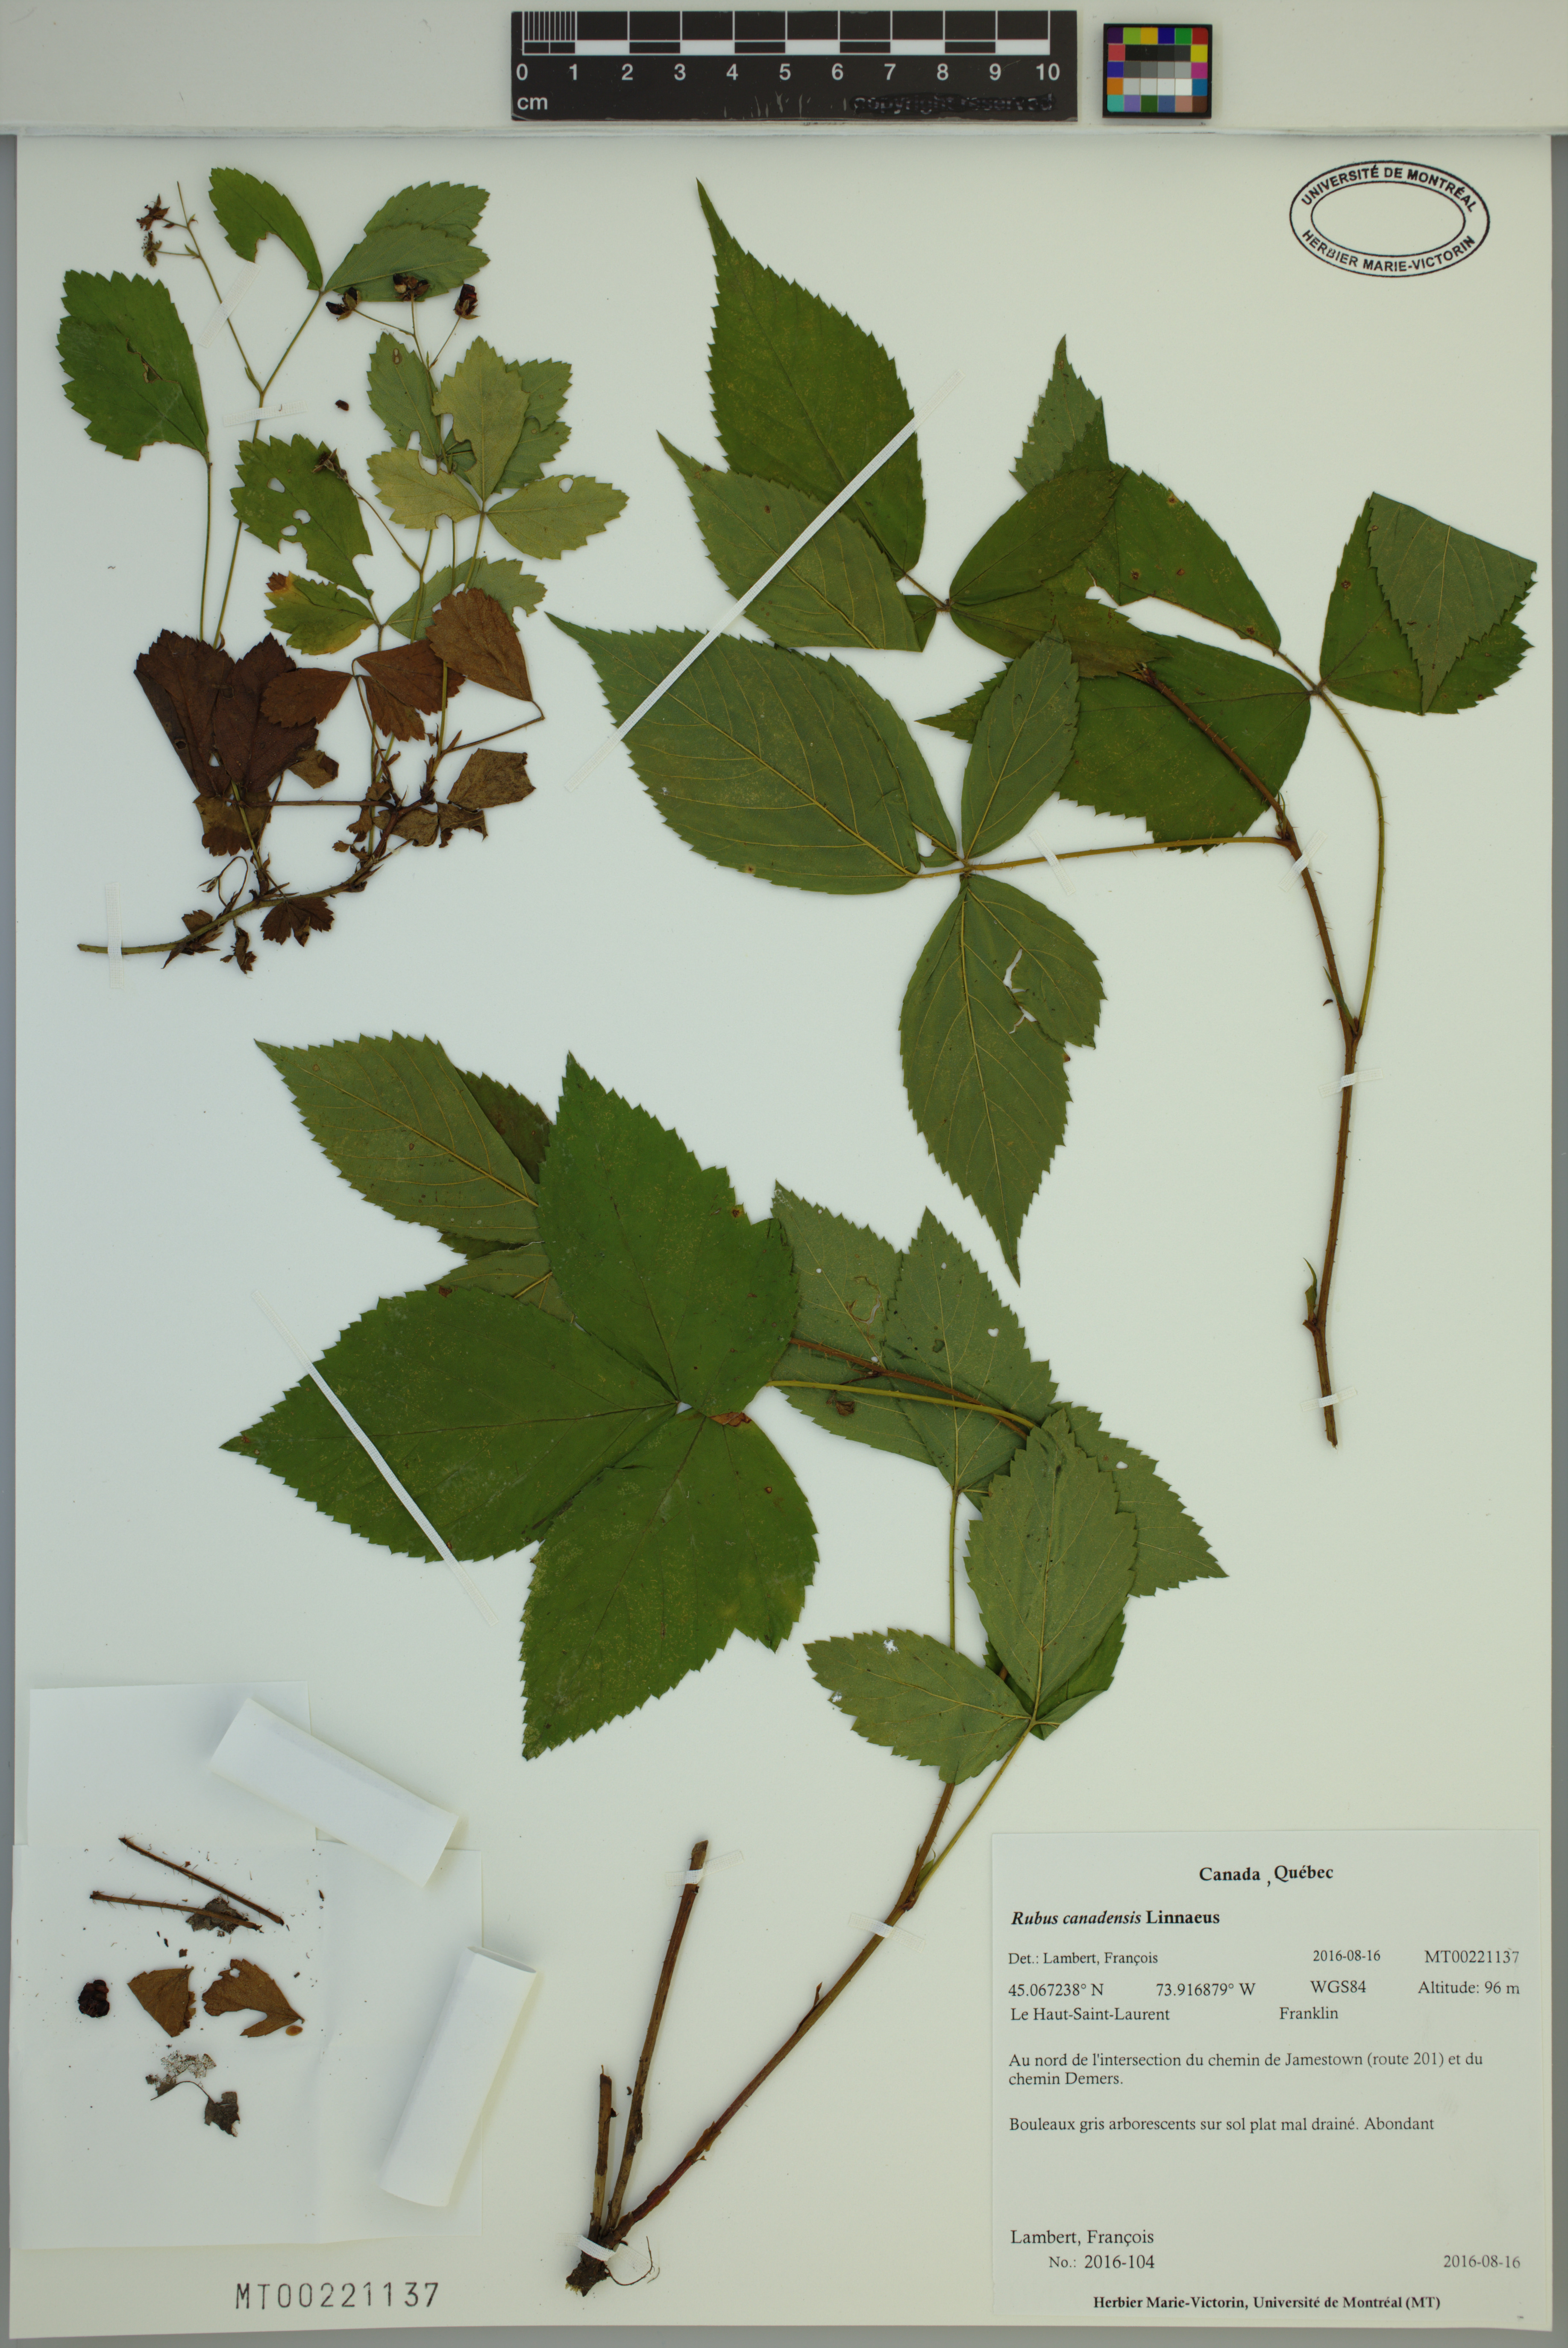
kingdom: Plantae
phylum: Tracheophyta
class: Magnoliopsida
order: Rosales
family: Rosaceae
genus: Rubus
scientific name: Rubus canadensis
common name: Smooth blackberry
